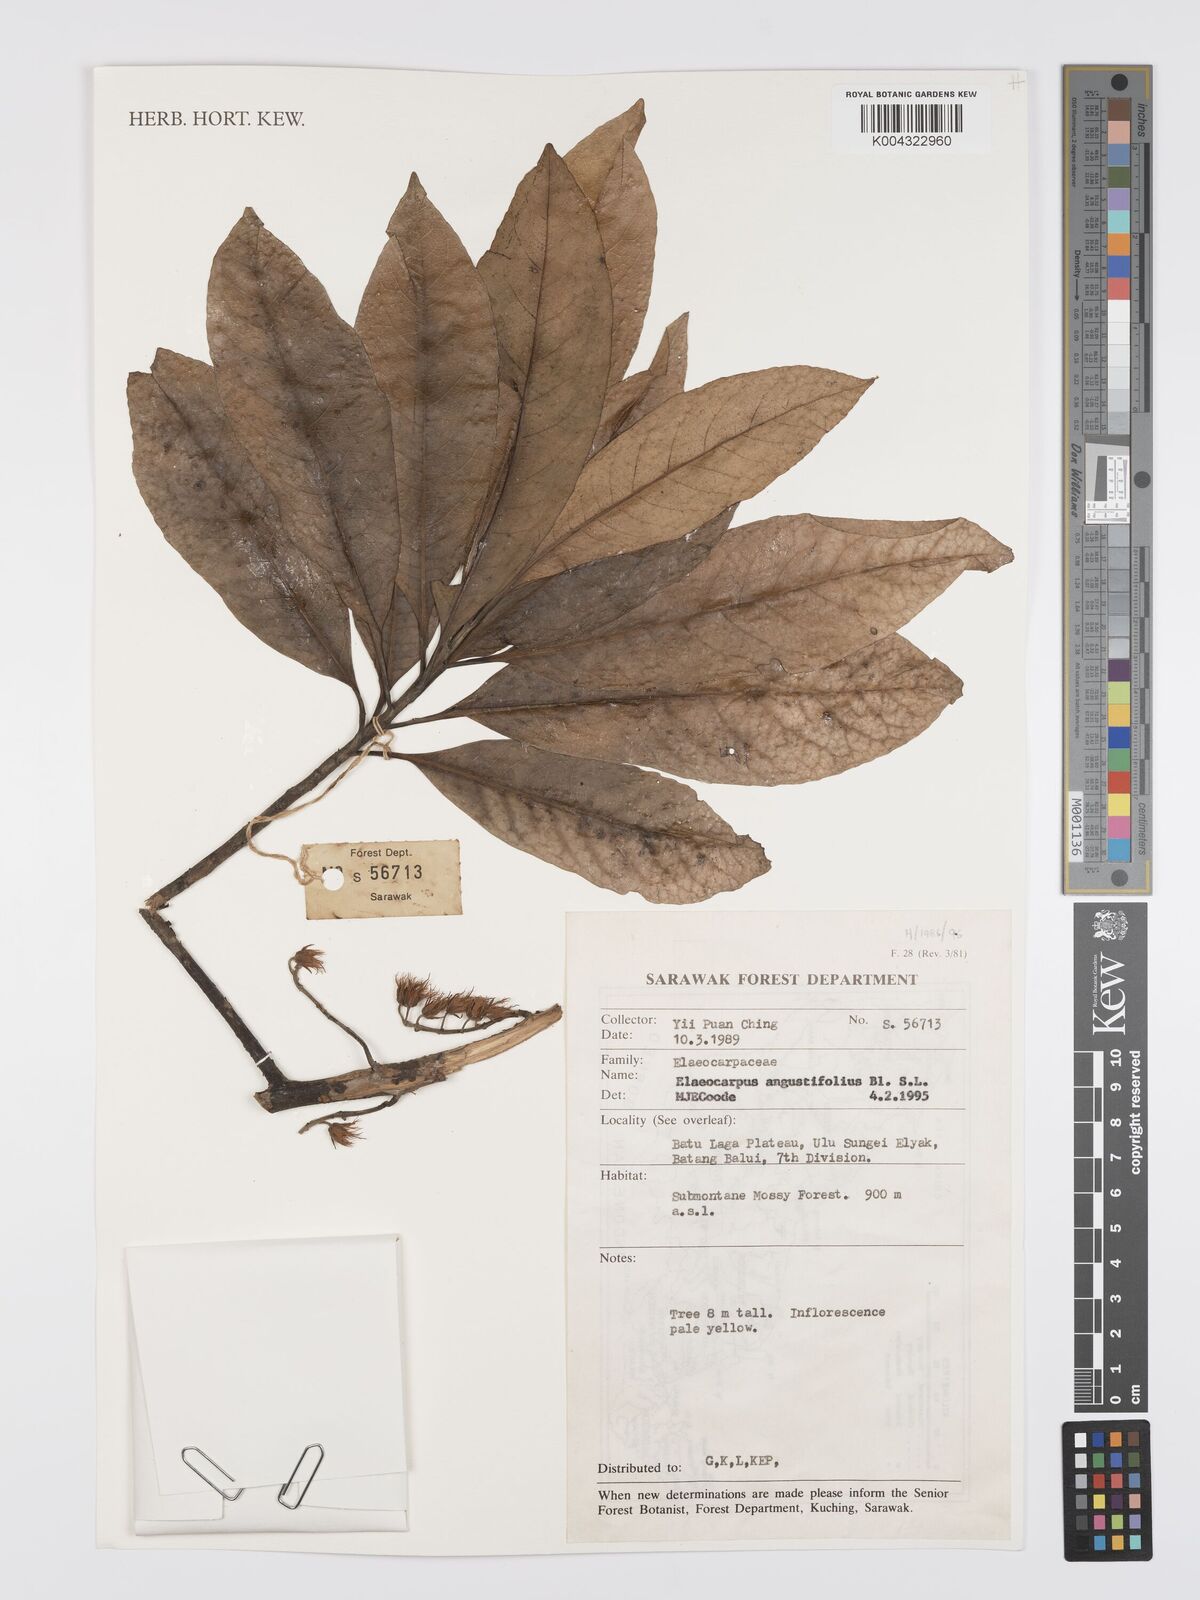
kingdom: Plantae
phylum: Tracheophyta
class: Magnoliopsida
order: Oxalidales
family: Elaeocarpaceae
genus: Elaeocarpus
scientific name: Elaeocarpus angustifolius
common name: Blue marble tree
